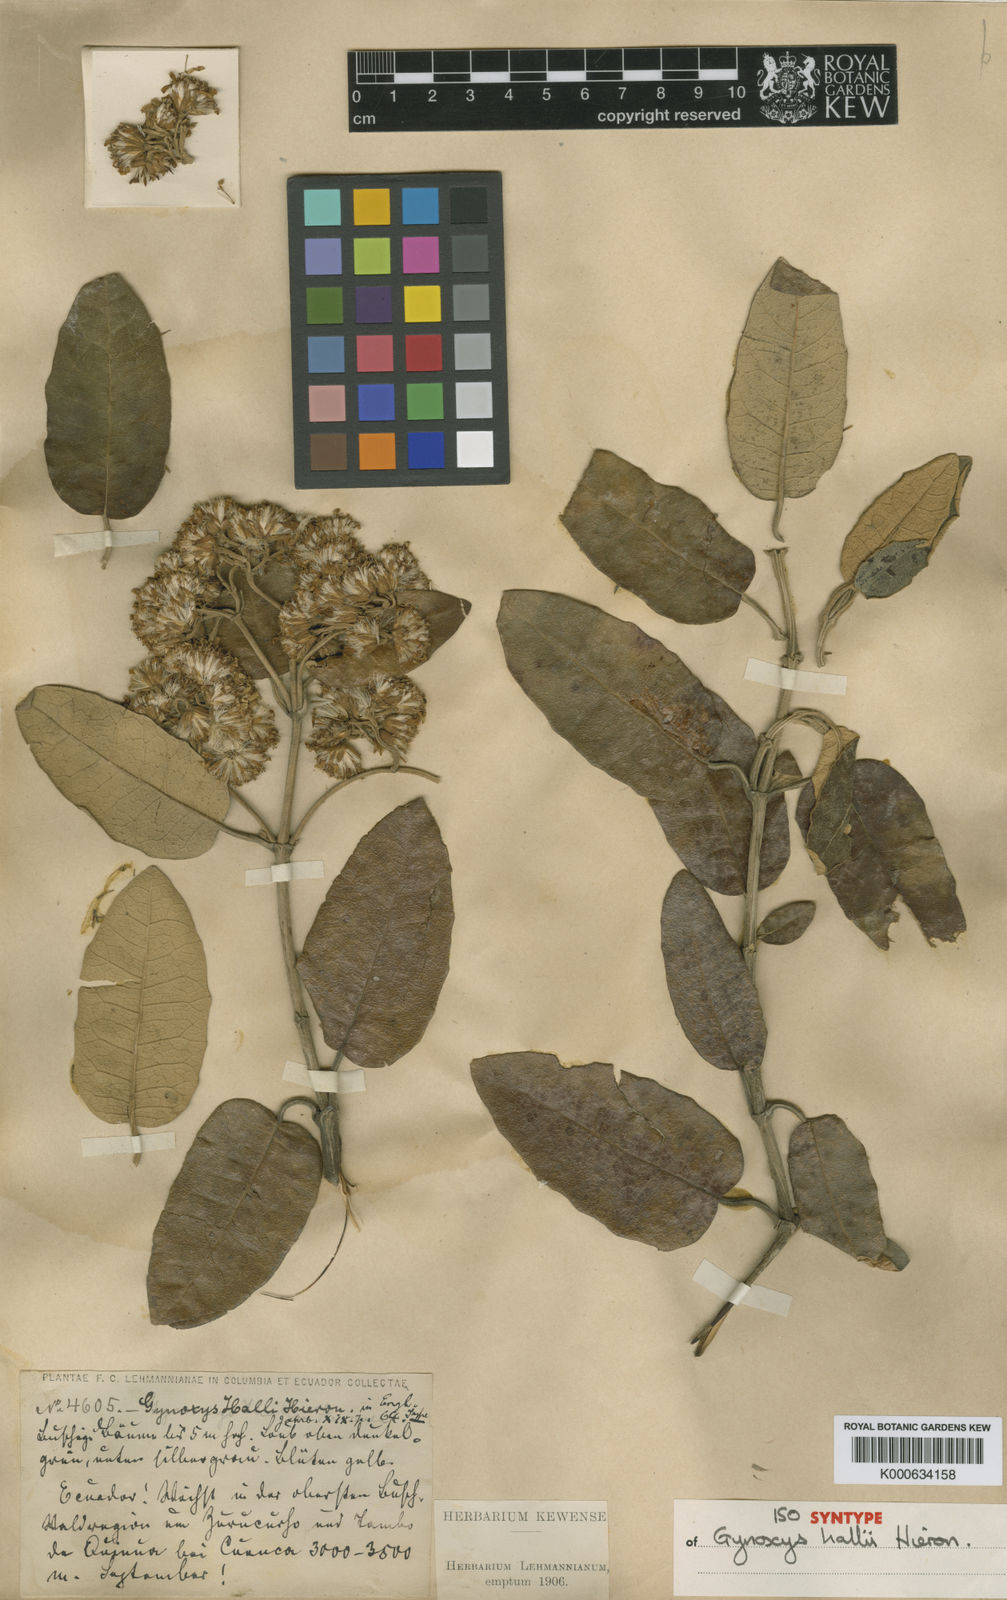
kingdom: Plantae
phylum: Tracheophyta
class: Magnoliopsida
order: Asterales
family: Asteraceae
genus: Gynoxys
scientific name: Gynoxys hallii
